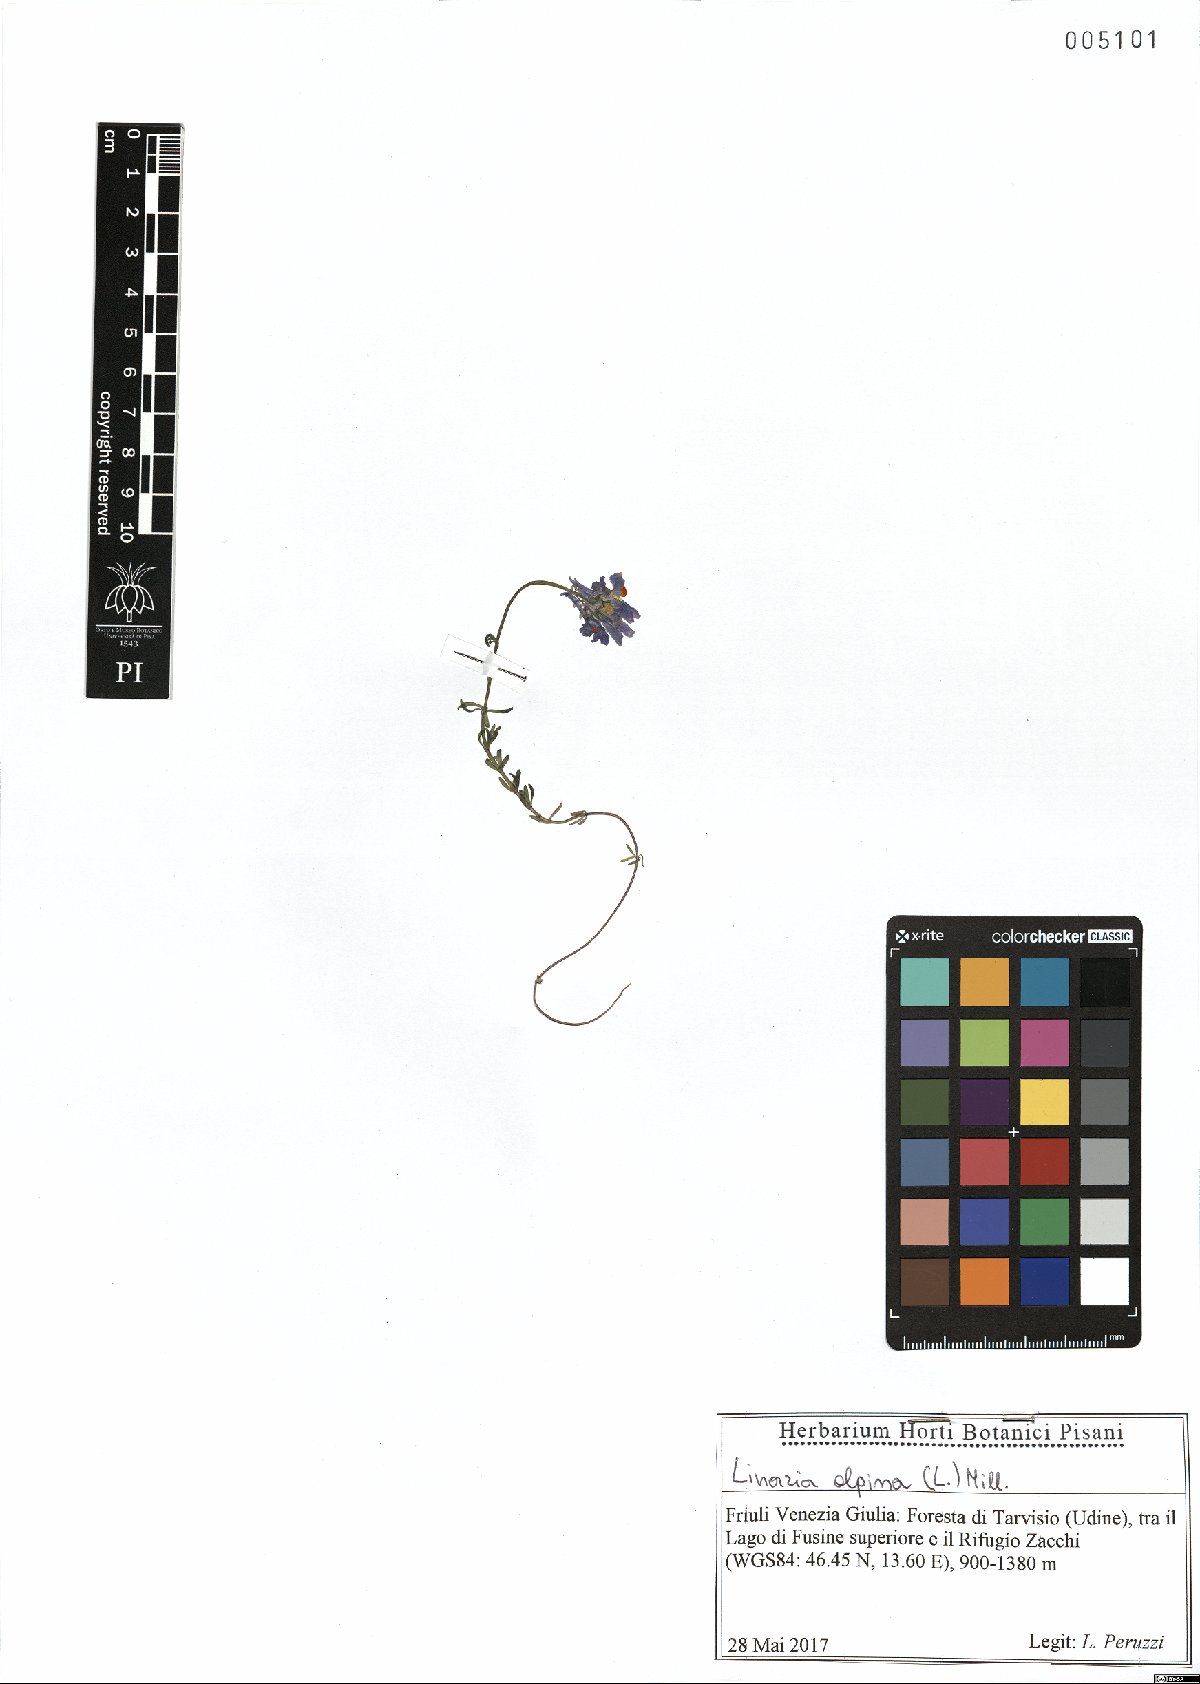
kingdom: Plantae
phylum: Tracheophyta
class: Magnoliopsida
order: Lamiales
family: Plantaginaceae
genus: Linaria
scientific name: Linaria alpina
